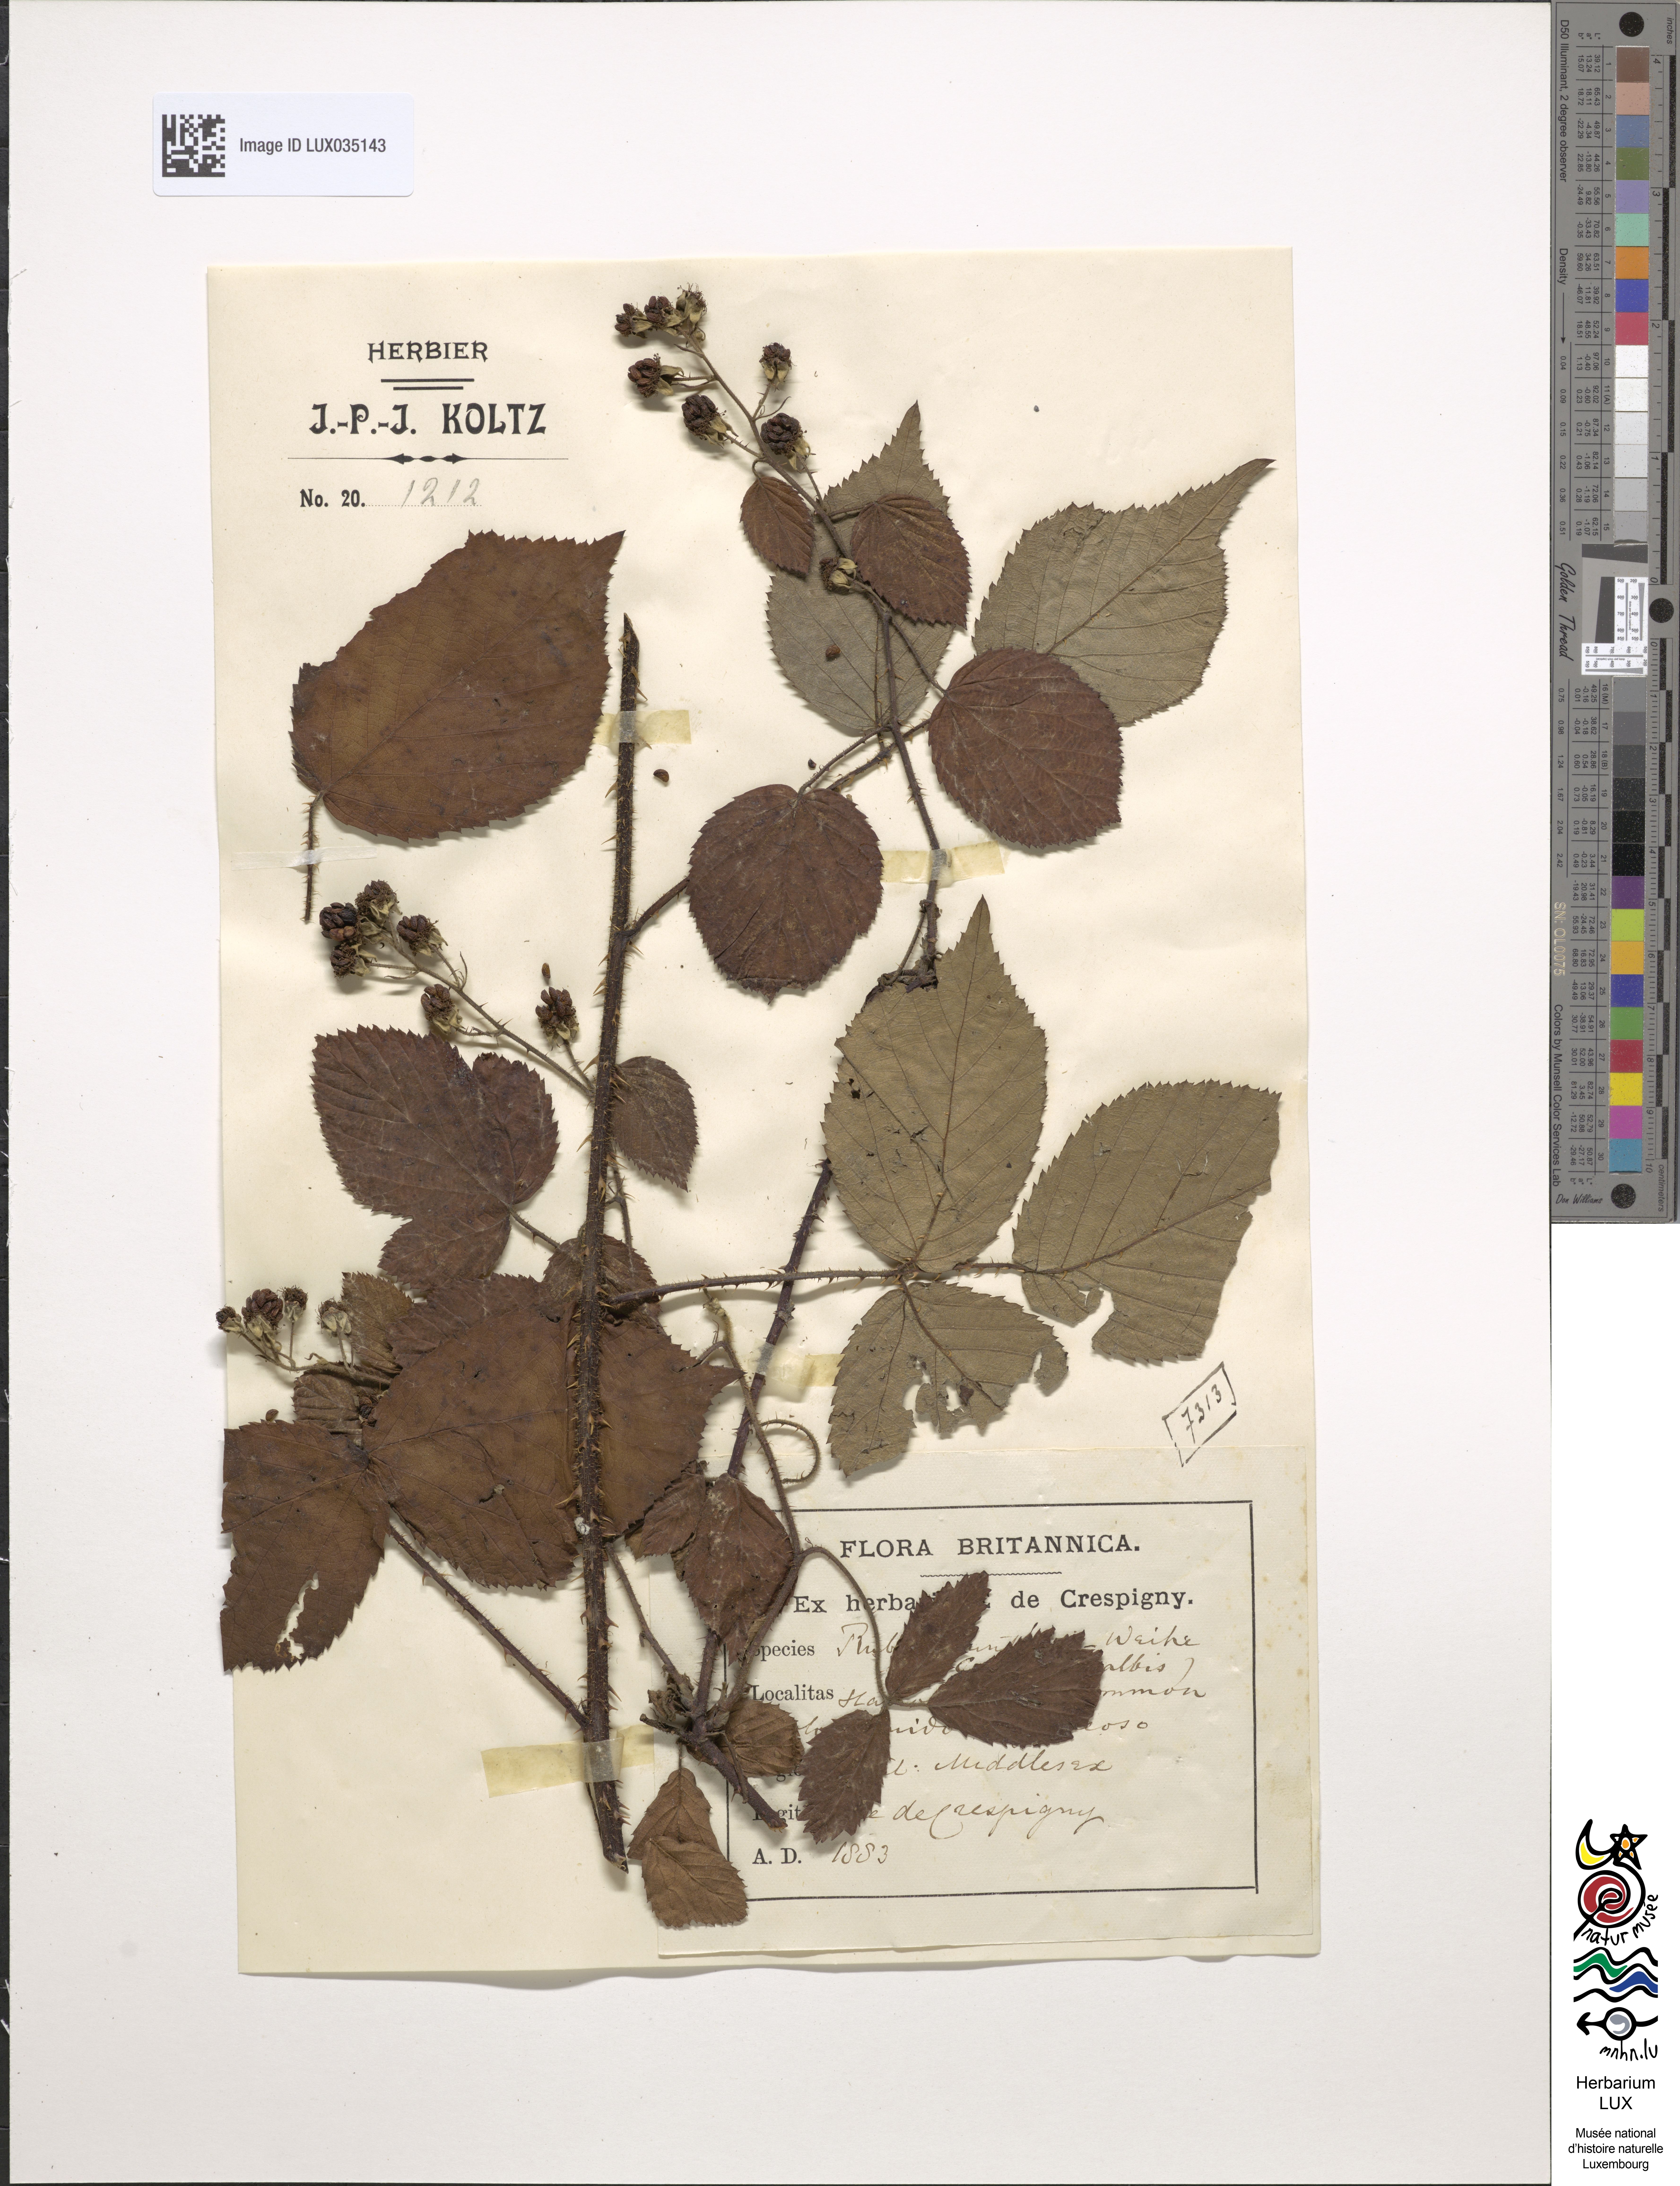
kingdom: Plantae
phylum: Tracheophyta
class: Magnoliopsida
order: Rosales
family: Rosaceae
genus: Rubus
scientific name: Rubus guentheri
